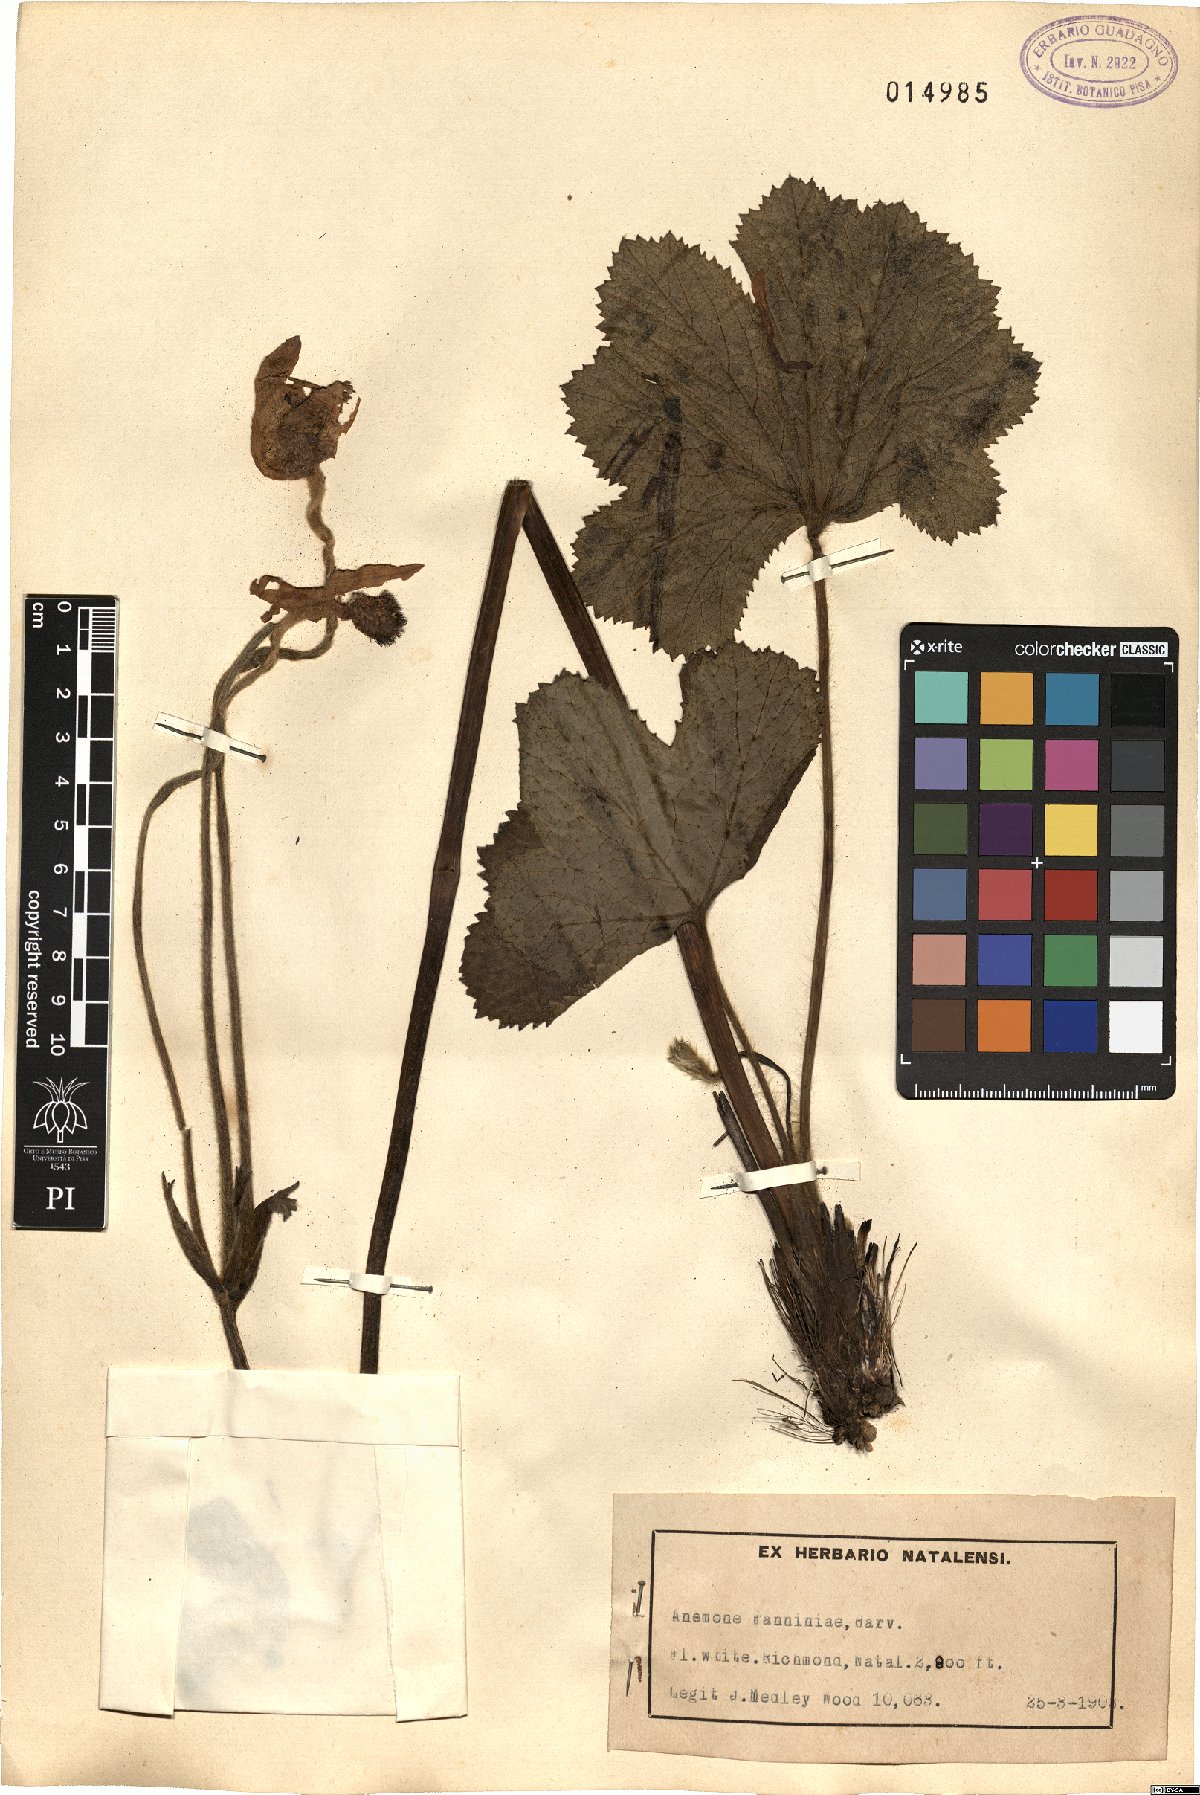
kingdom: Plantae
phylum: Tracheophyta
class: Magnoliopsida
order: Ranunculales
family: Ranunculaceae
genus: Knowltonia
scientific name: Knowltonia fanninii
